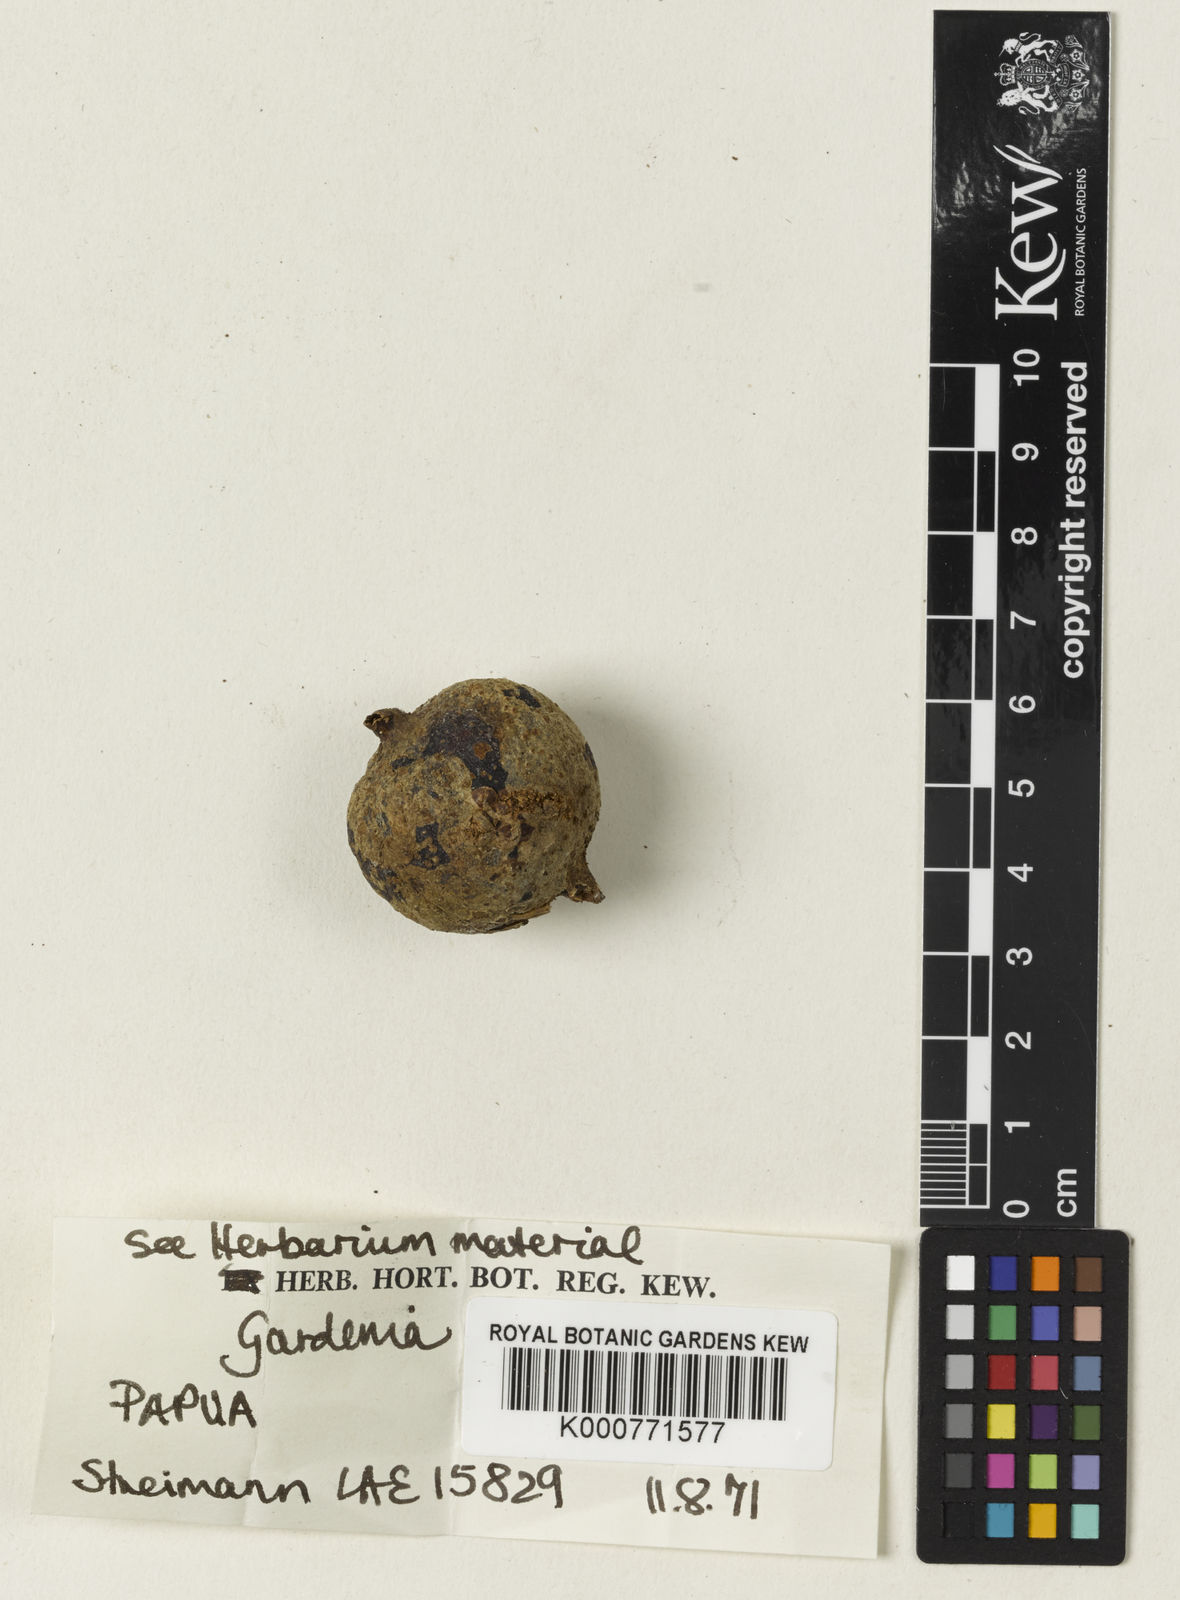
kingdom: Plantae
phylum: Tracheophyta
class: Magnoliopsida
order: Gentianales
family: Rubiaceae
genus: Gardenia
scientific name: Gardenia
